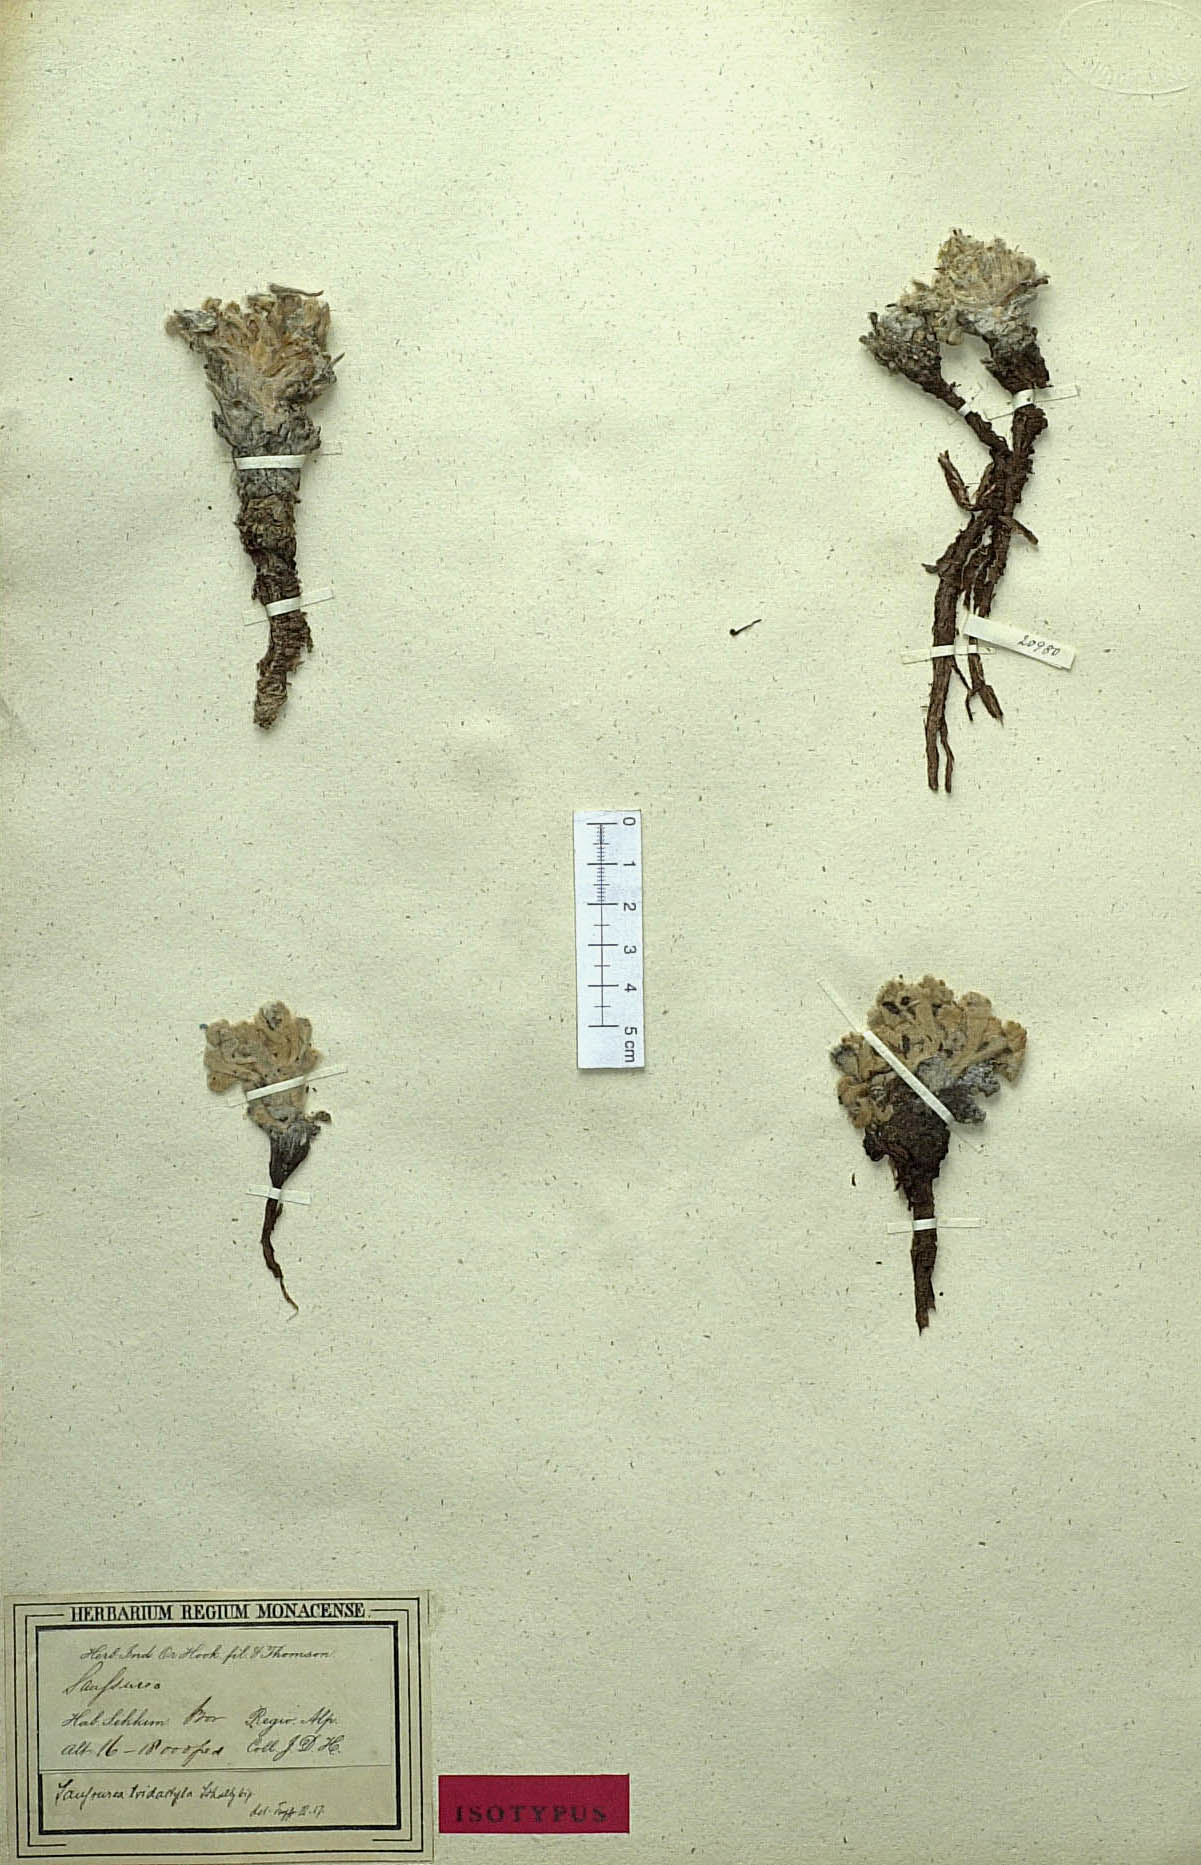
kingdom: Plantae
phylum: Tracheophyta
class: Magnoliopsida
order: Asterales
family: Asteraceae
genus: Saussurea
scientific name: Saussurea tridactyla
